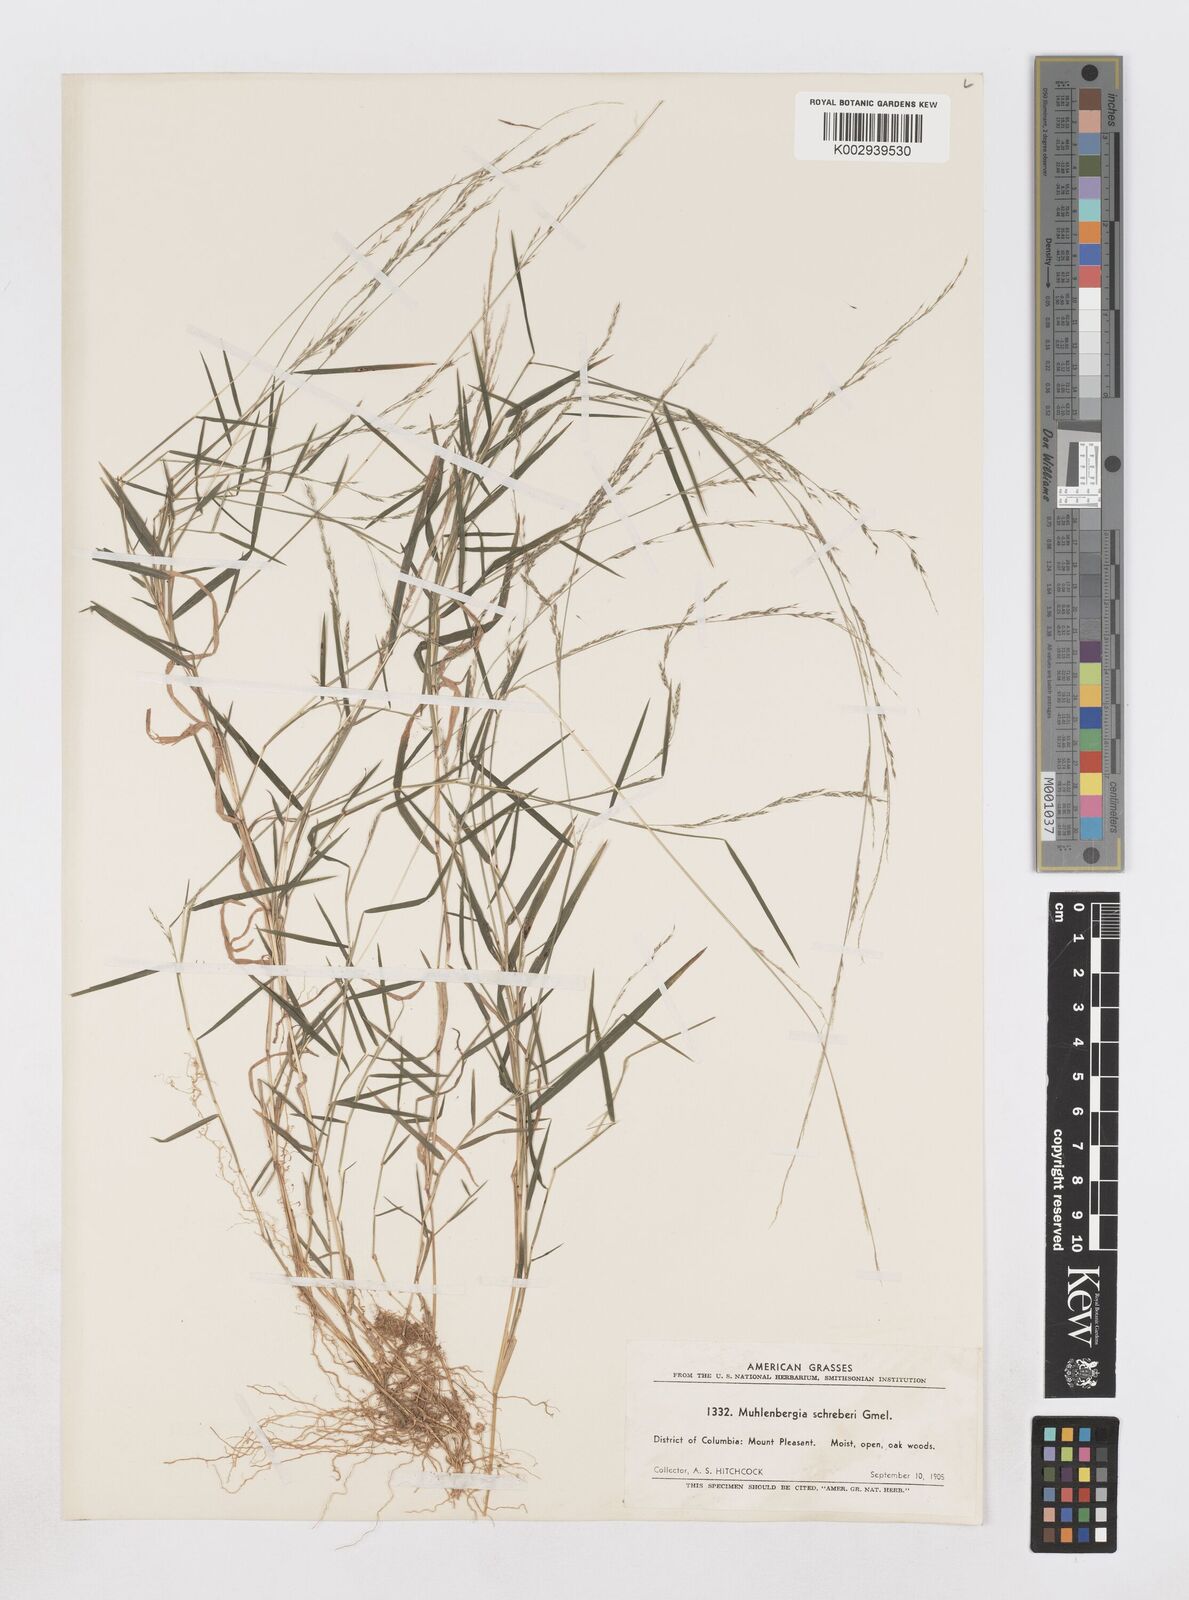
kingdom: Plantae
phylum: Tracheophyta
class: Liliopsida
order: Poales
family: Poaceae
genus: Muhlenbergia
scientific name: Muhlenbergia schreberi
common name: Nimblewill
